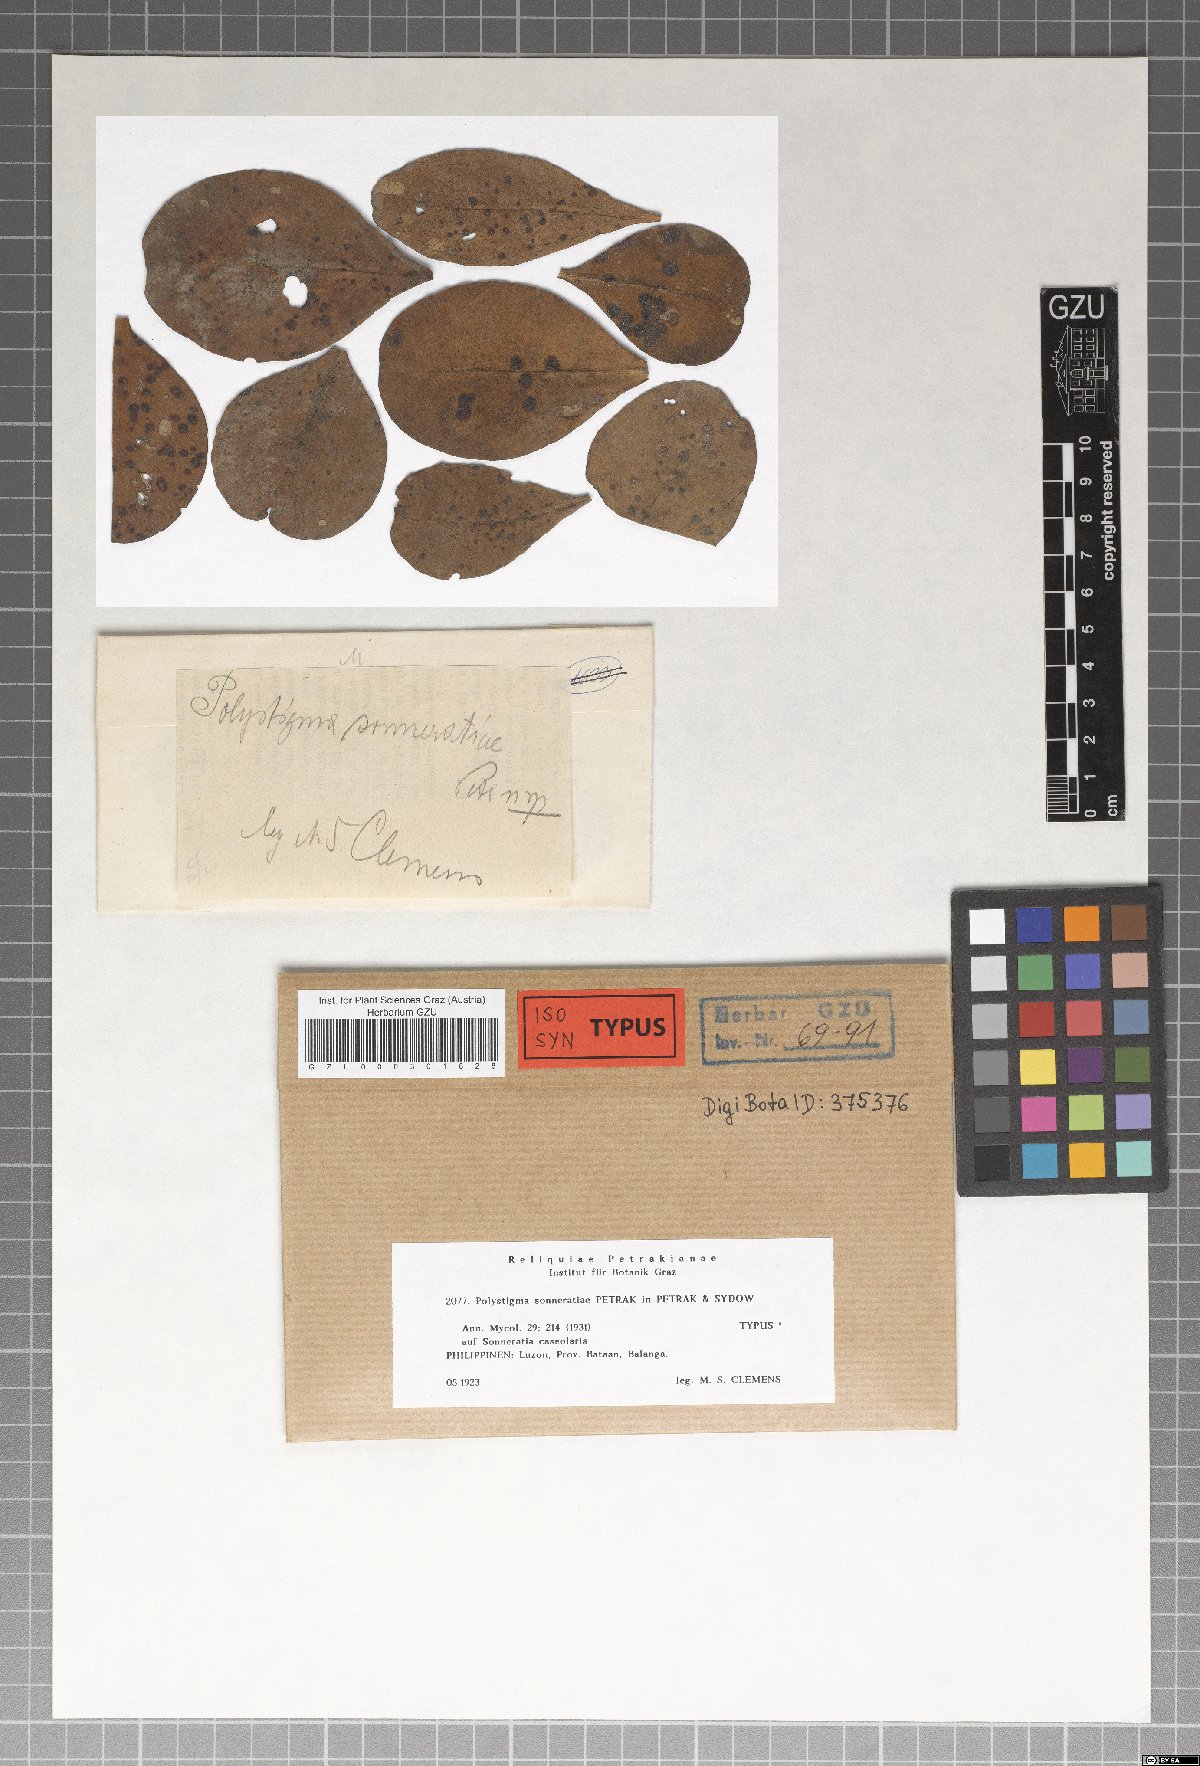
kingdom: Fungi
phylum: Ascomycota
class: Sordariomycetes
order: Phyllachorales
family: Phyllachoraceae
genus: Polystigma
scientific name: Polystigma sonneratiae
